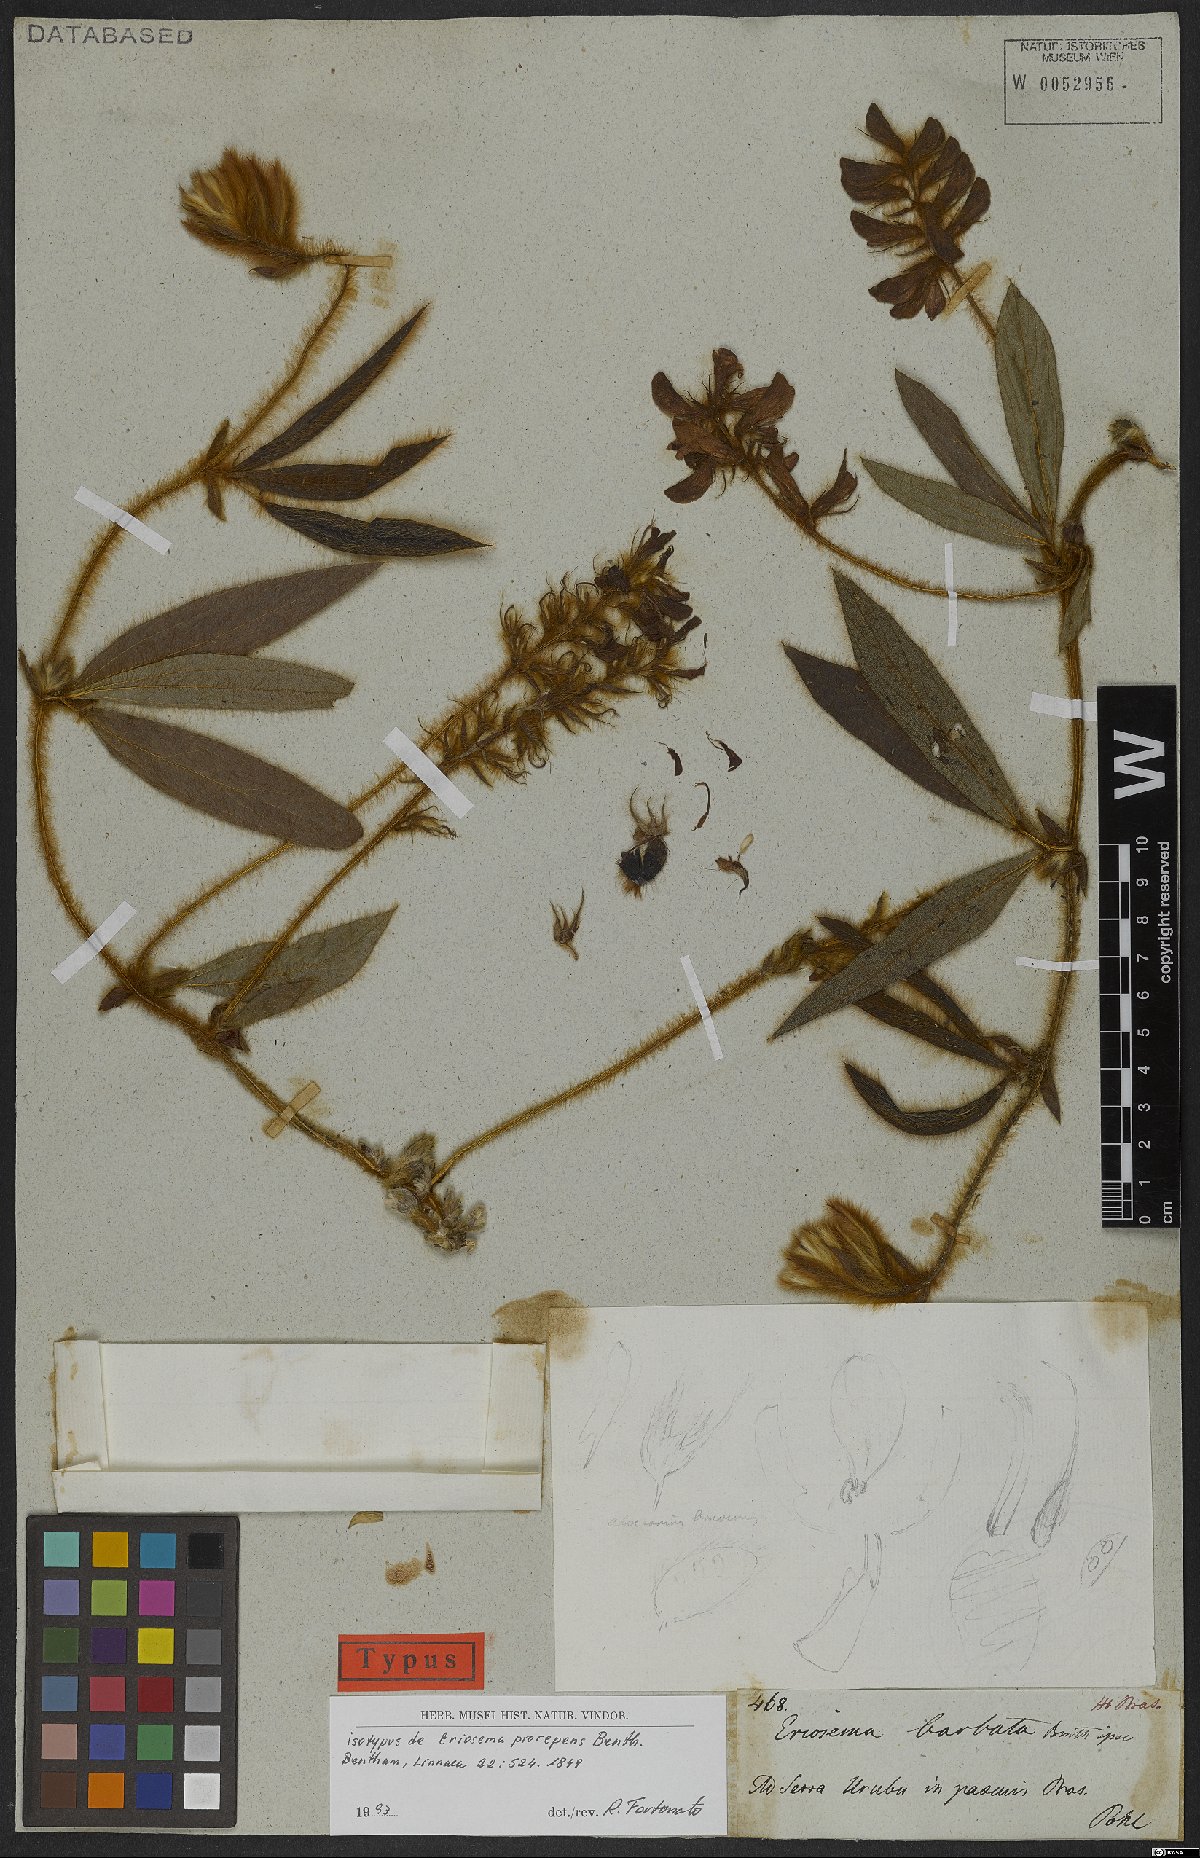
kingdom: Plantae
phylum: Tracheophyta
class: Magnoliopsida
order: Fabales
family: Fabaceae
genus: Eriosema
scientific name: Eriosema prorepens
